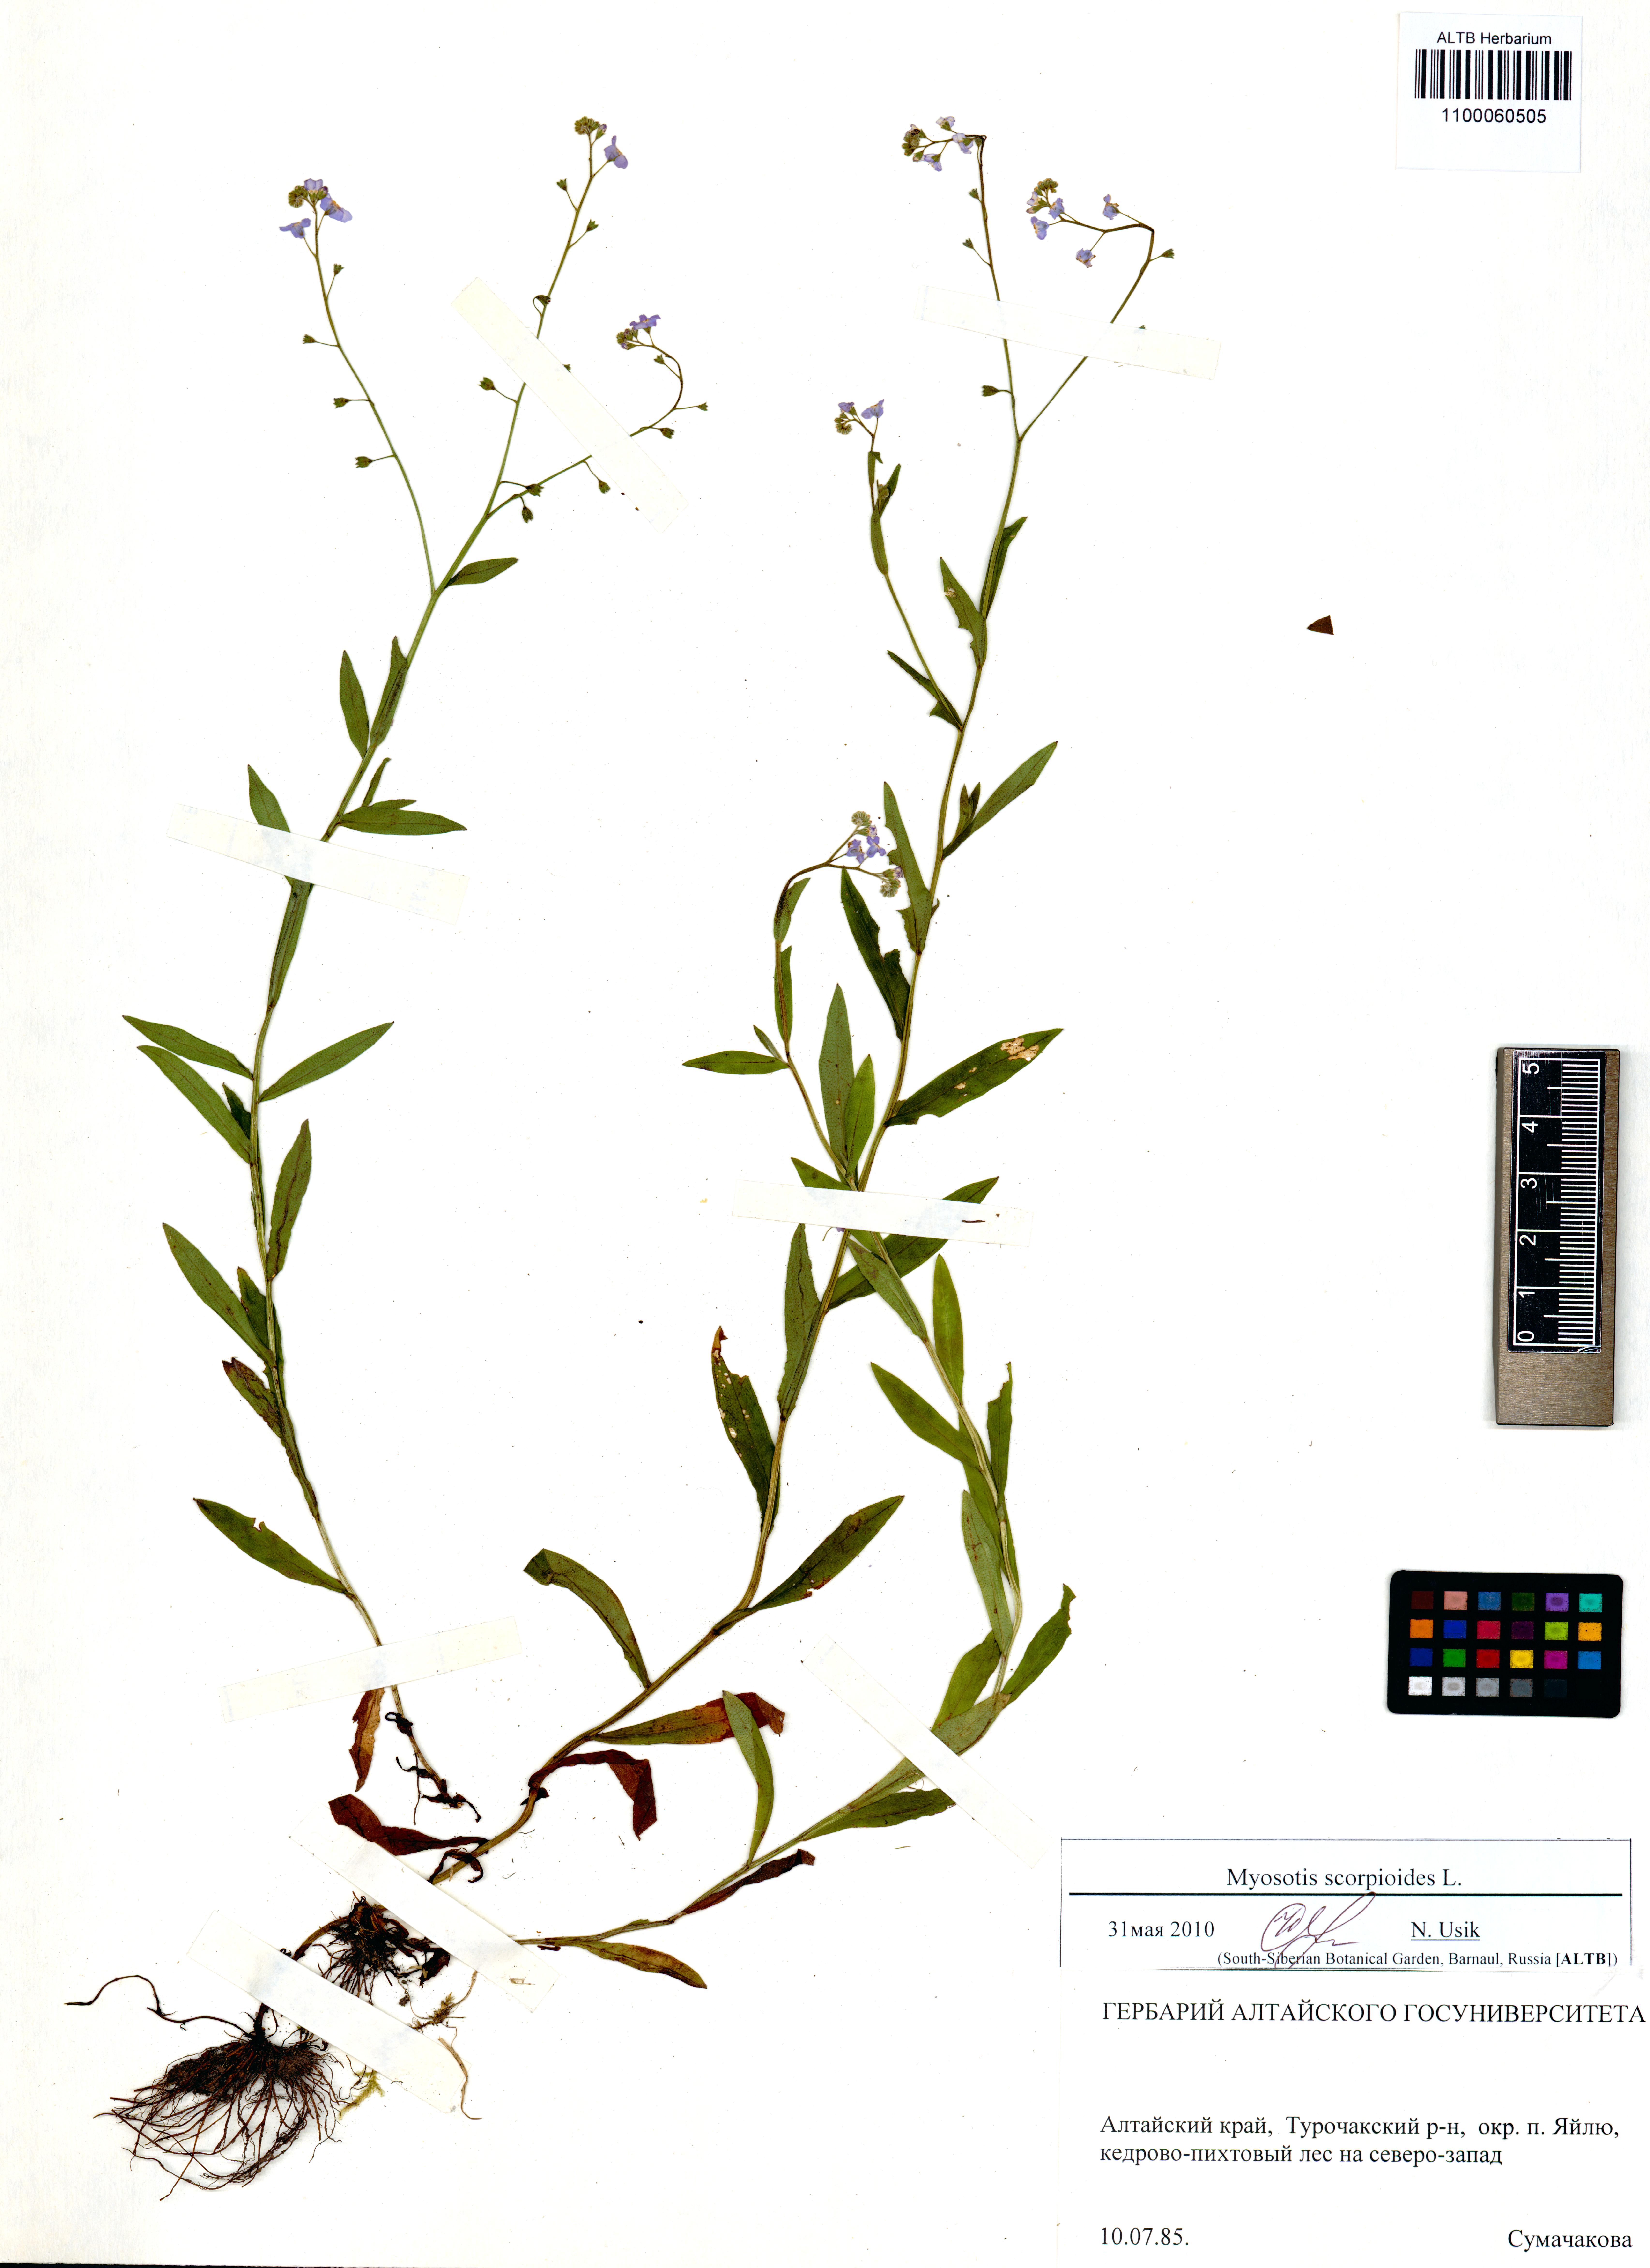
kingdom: Plantae
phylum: Tracheophyta
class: Magnoliopsida
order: Boraginales
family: Boraginaceae
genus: Myosotis
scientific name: Myosotis scorpioides
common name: Water forget-me-not
